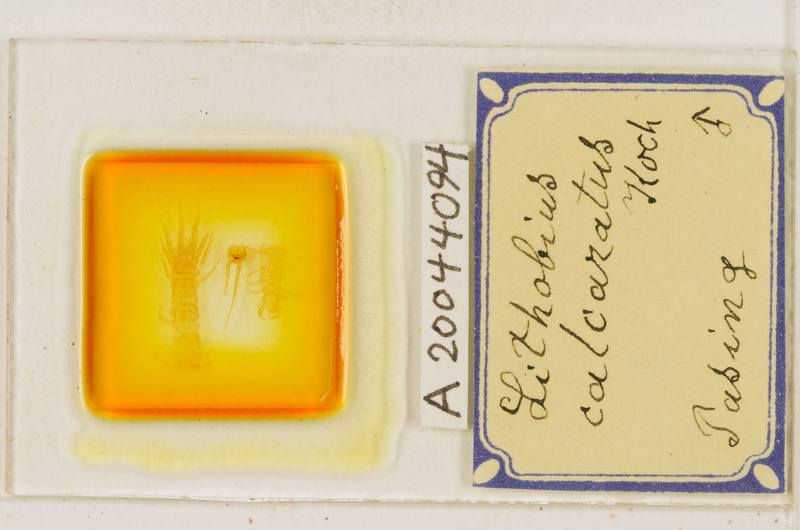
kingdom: Animalia
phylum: Arthropoda
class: Chilopoda
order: Lithobiomorpha
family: Lithobiidae
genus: Lithobius
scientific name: Lithobius calcaratus
